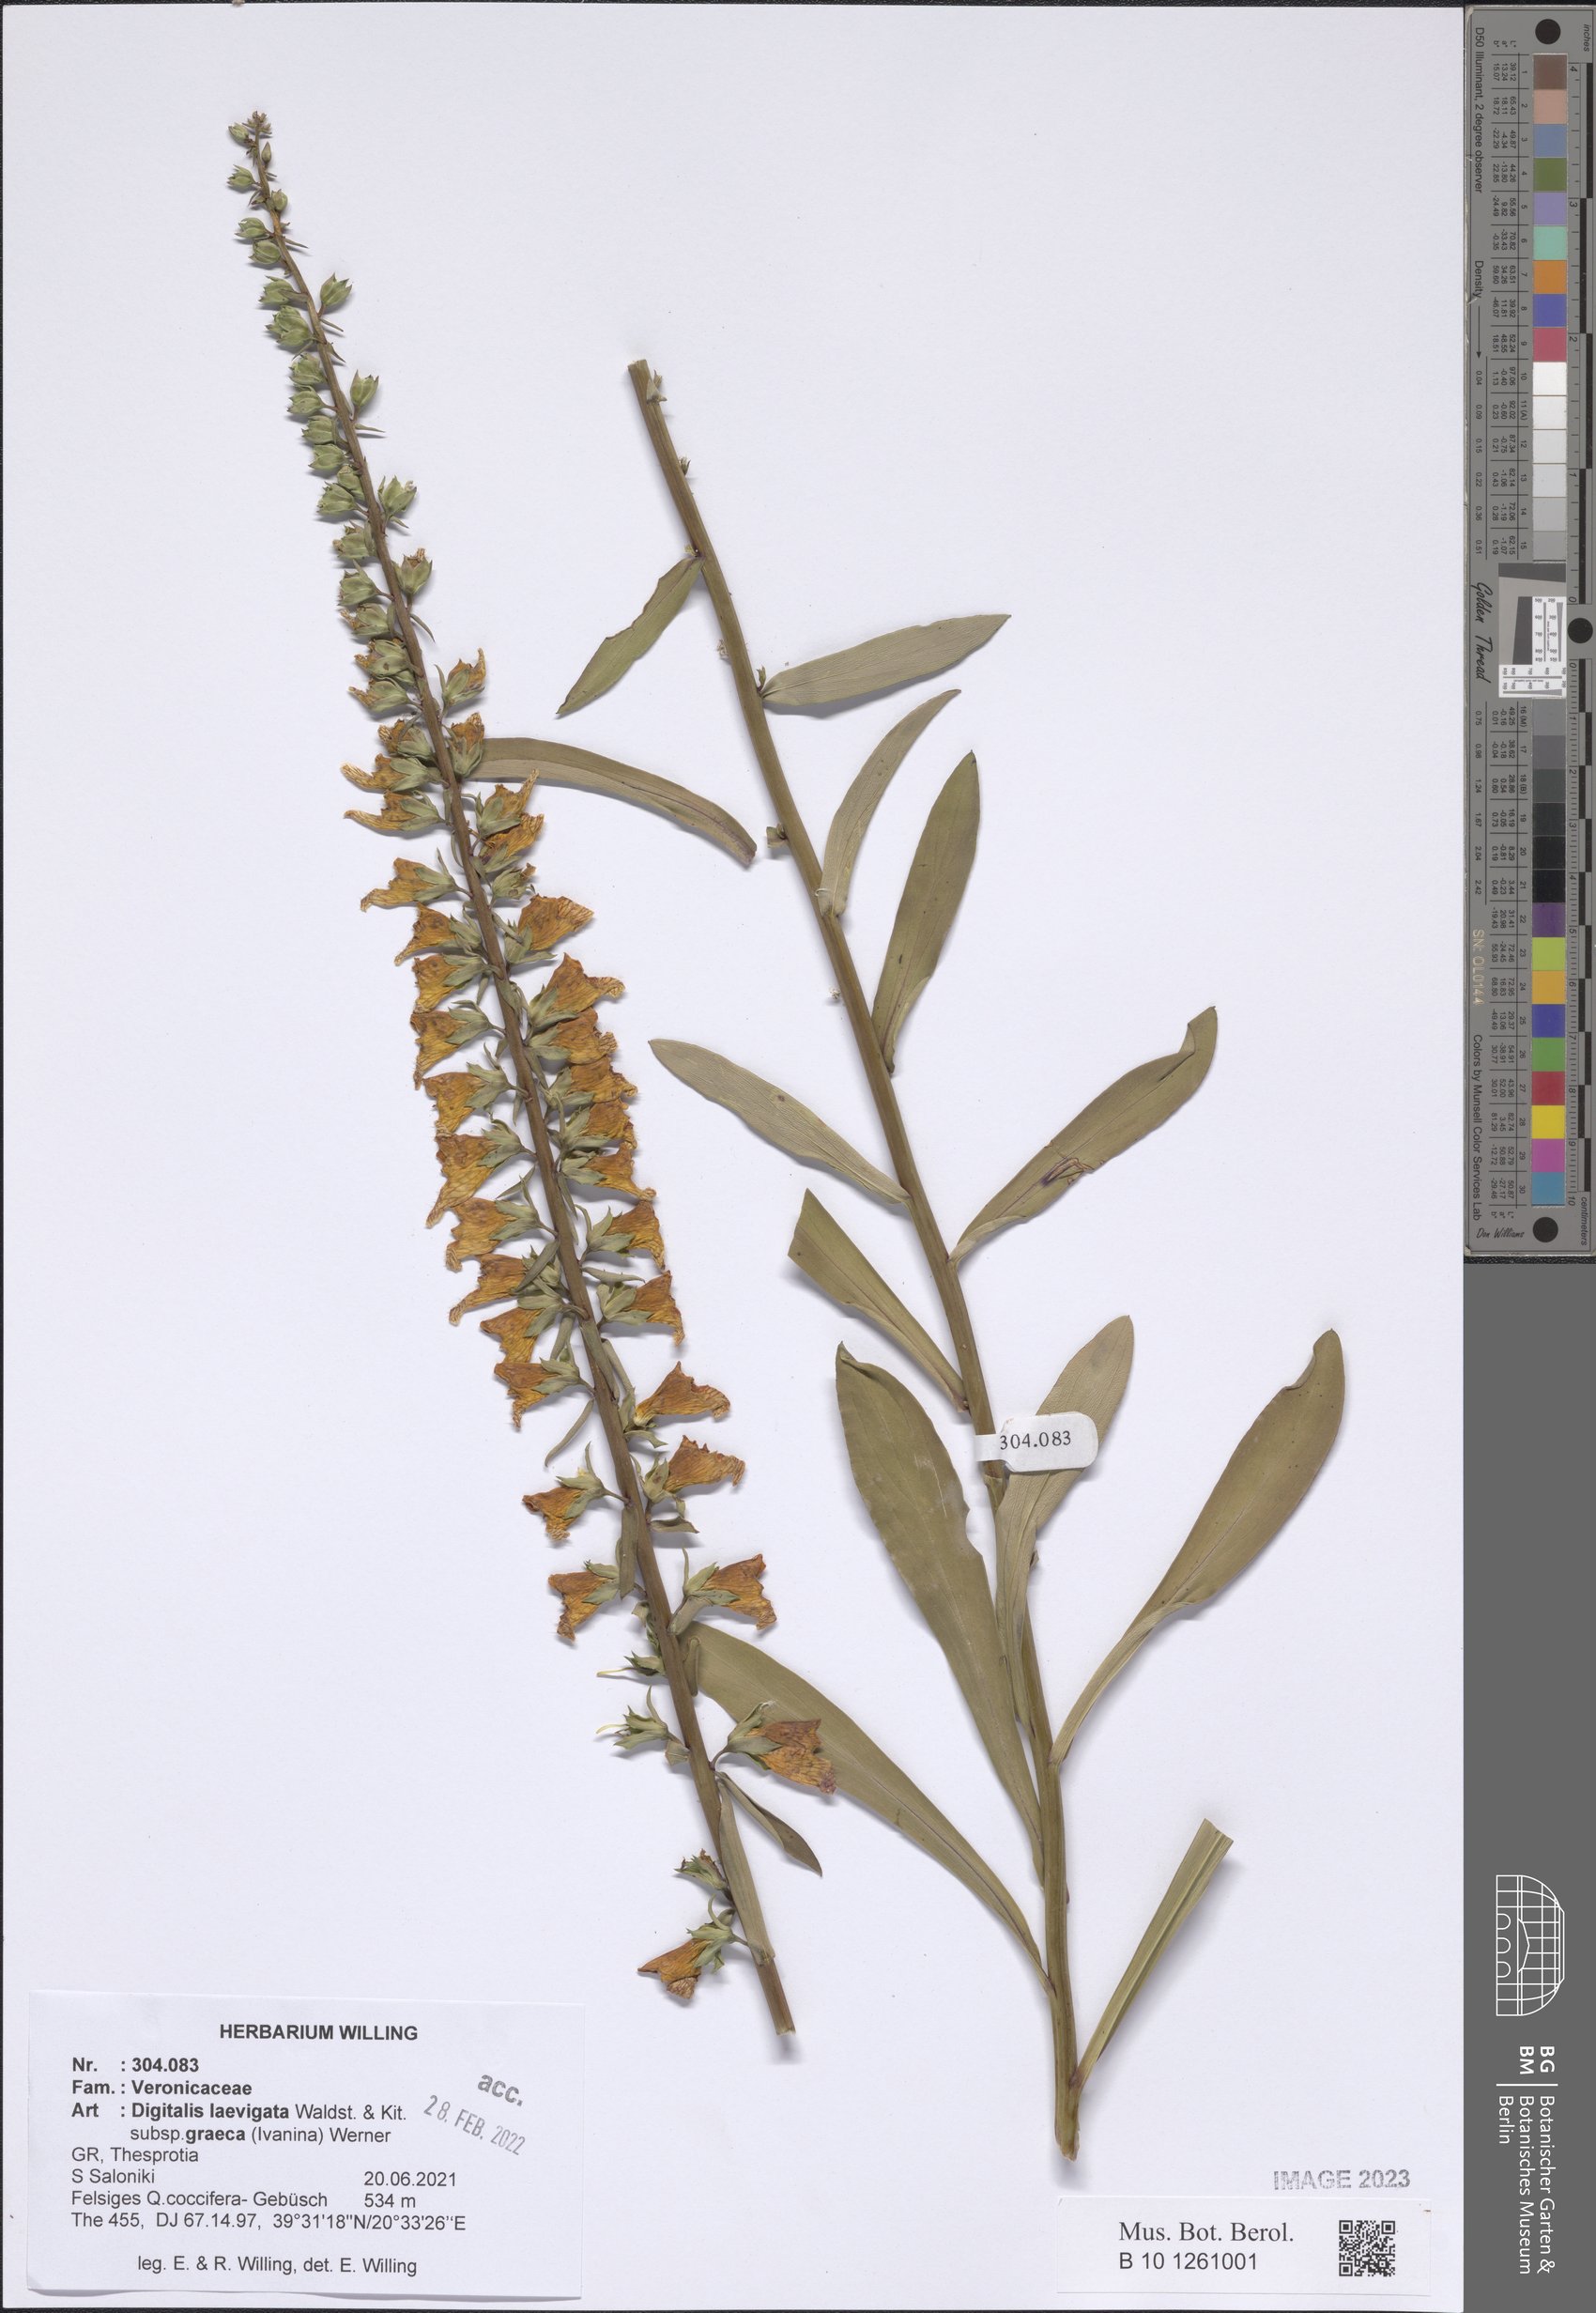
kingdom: Plantae
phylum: Tracheophyta
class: Magnoliopsida
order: Lamiales
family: Plantaginaceae
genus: Digitalis
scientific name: Digitalis laevigata
